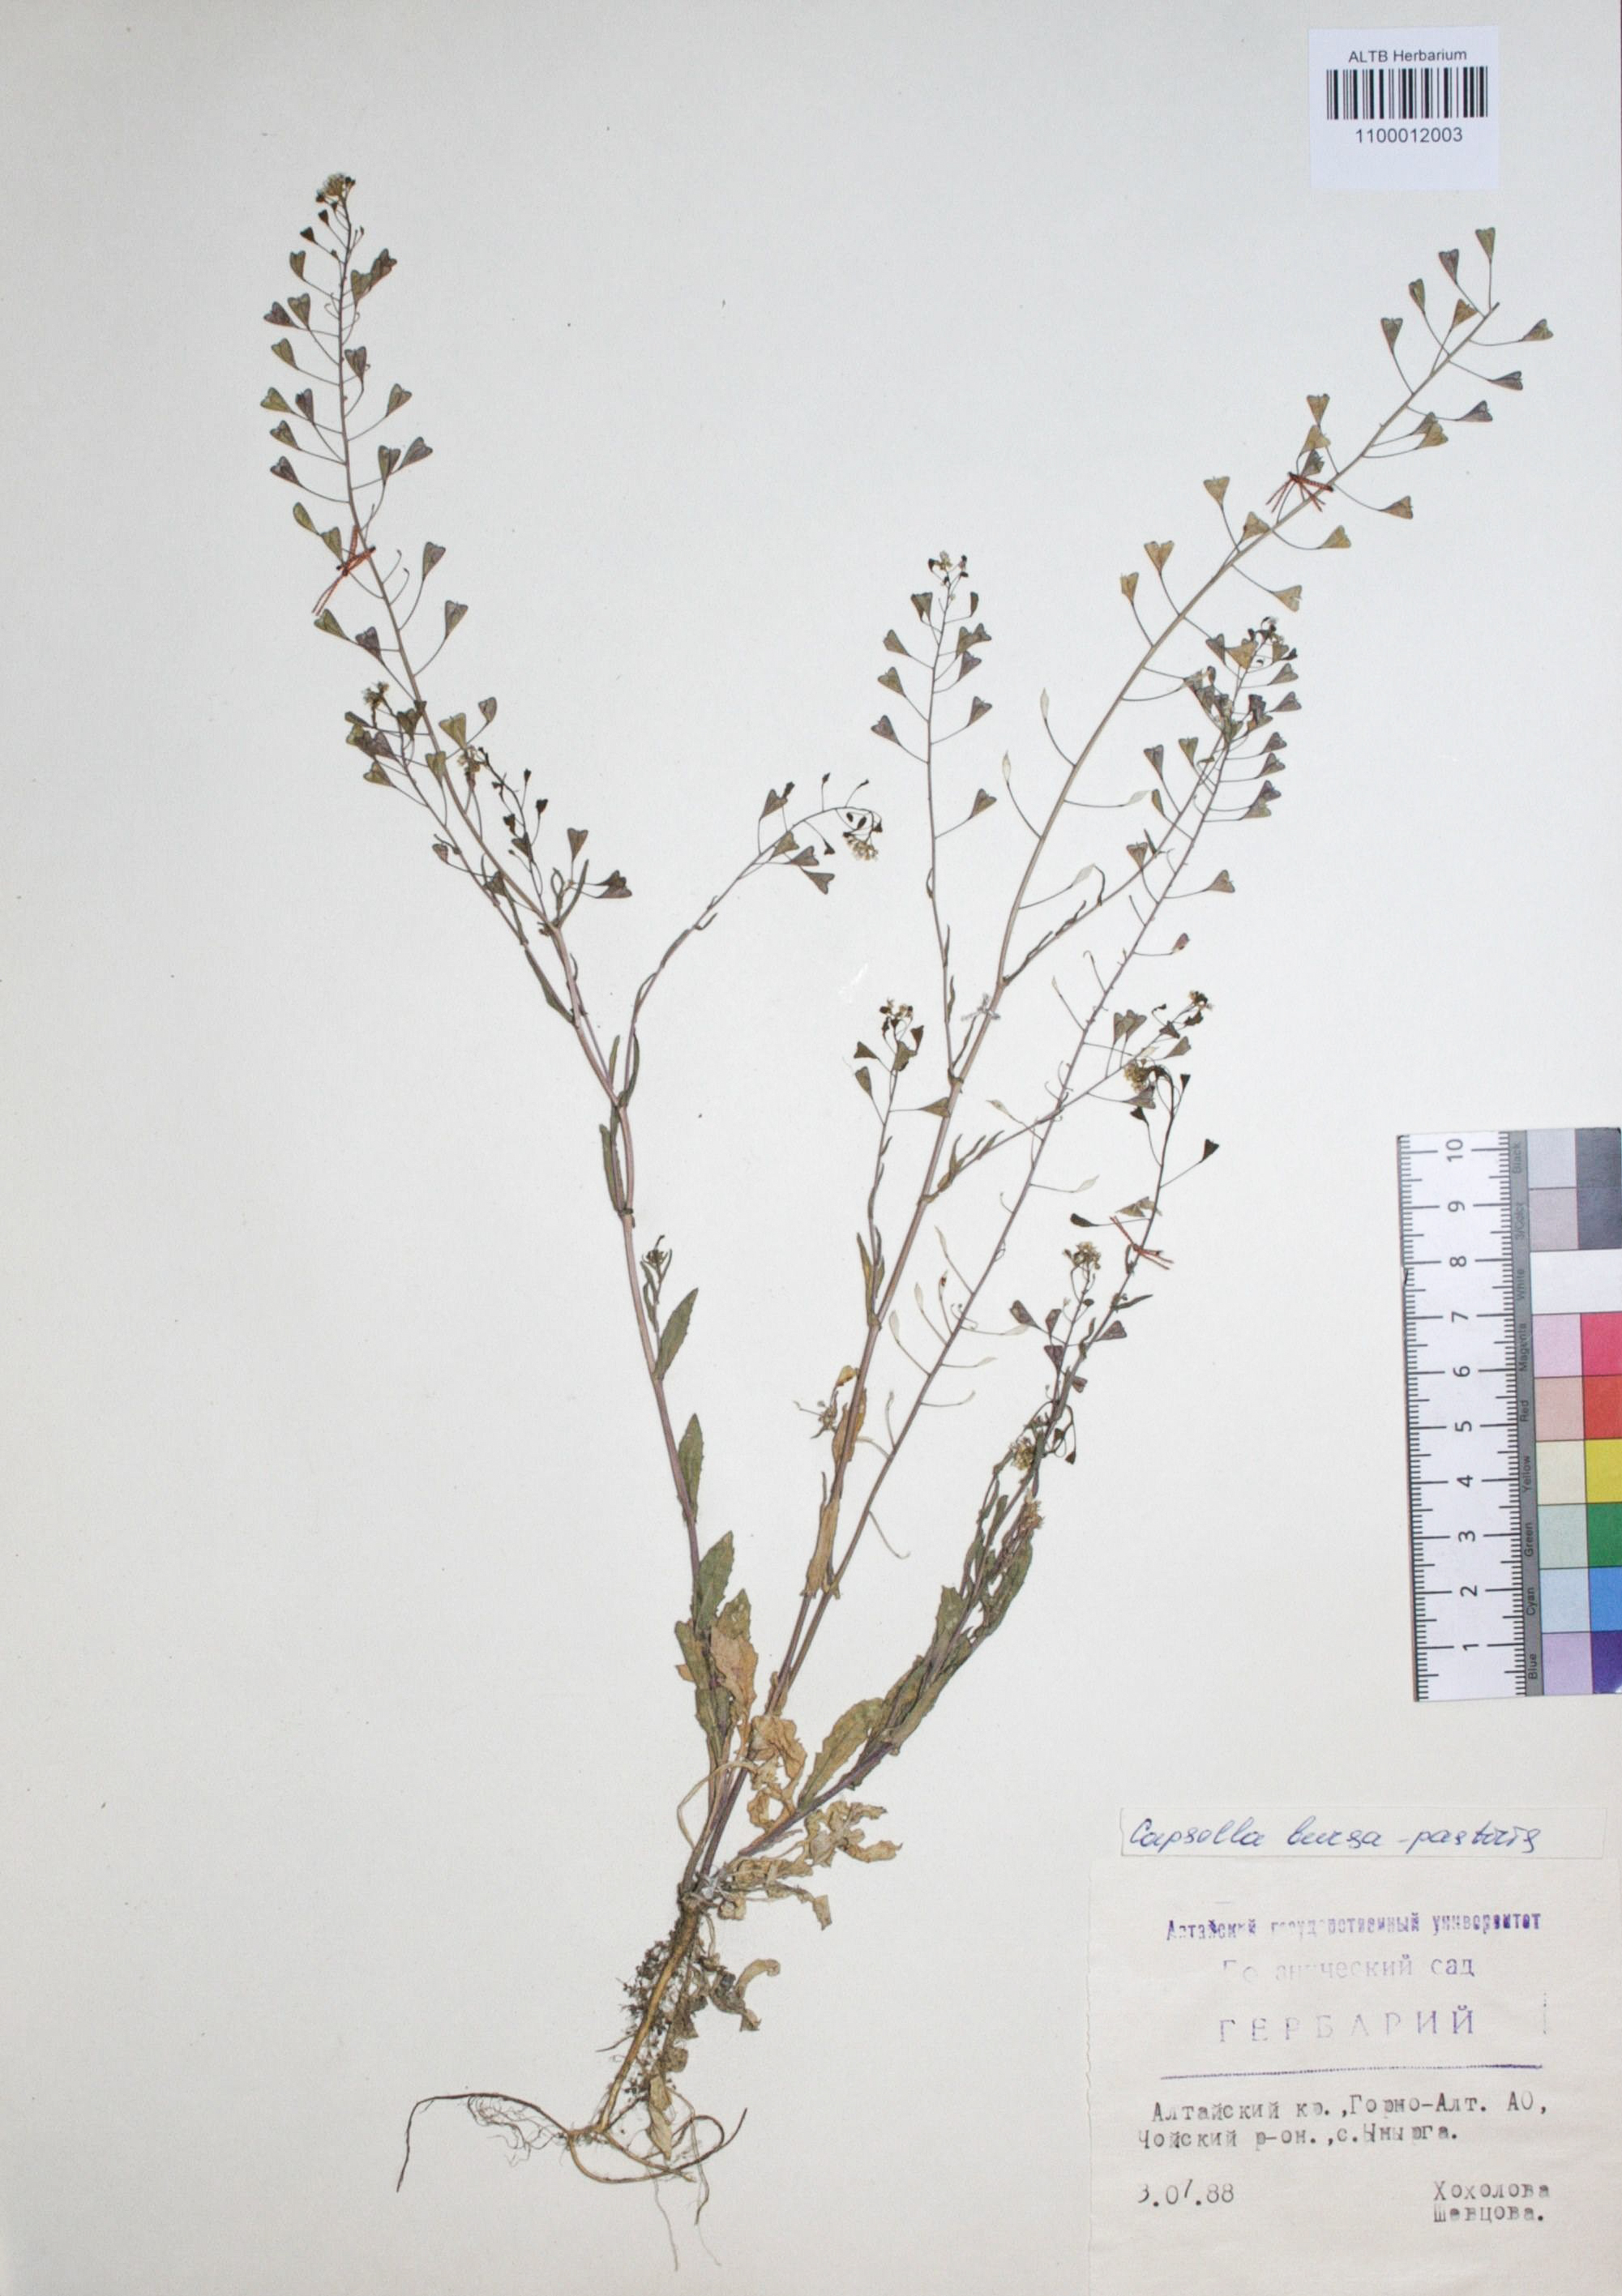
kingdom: Plantae
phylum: Tracheophyta
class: Magnoliopsida
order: Brassicales
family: Brassicaceae
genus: Capsella
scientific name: Capsella bursa-pastoris
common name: Shepherd's purse
